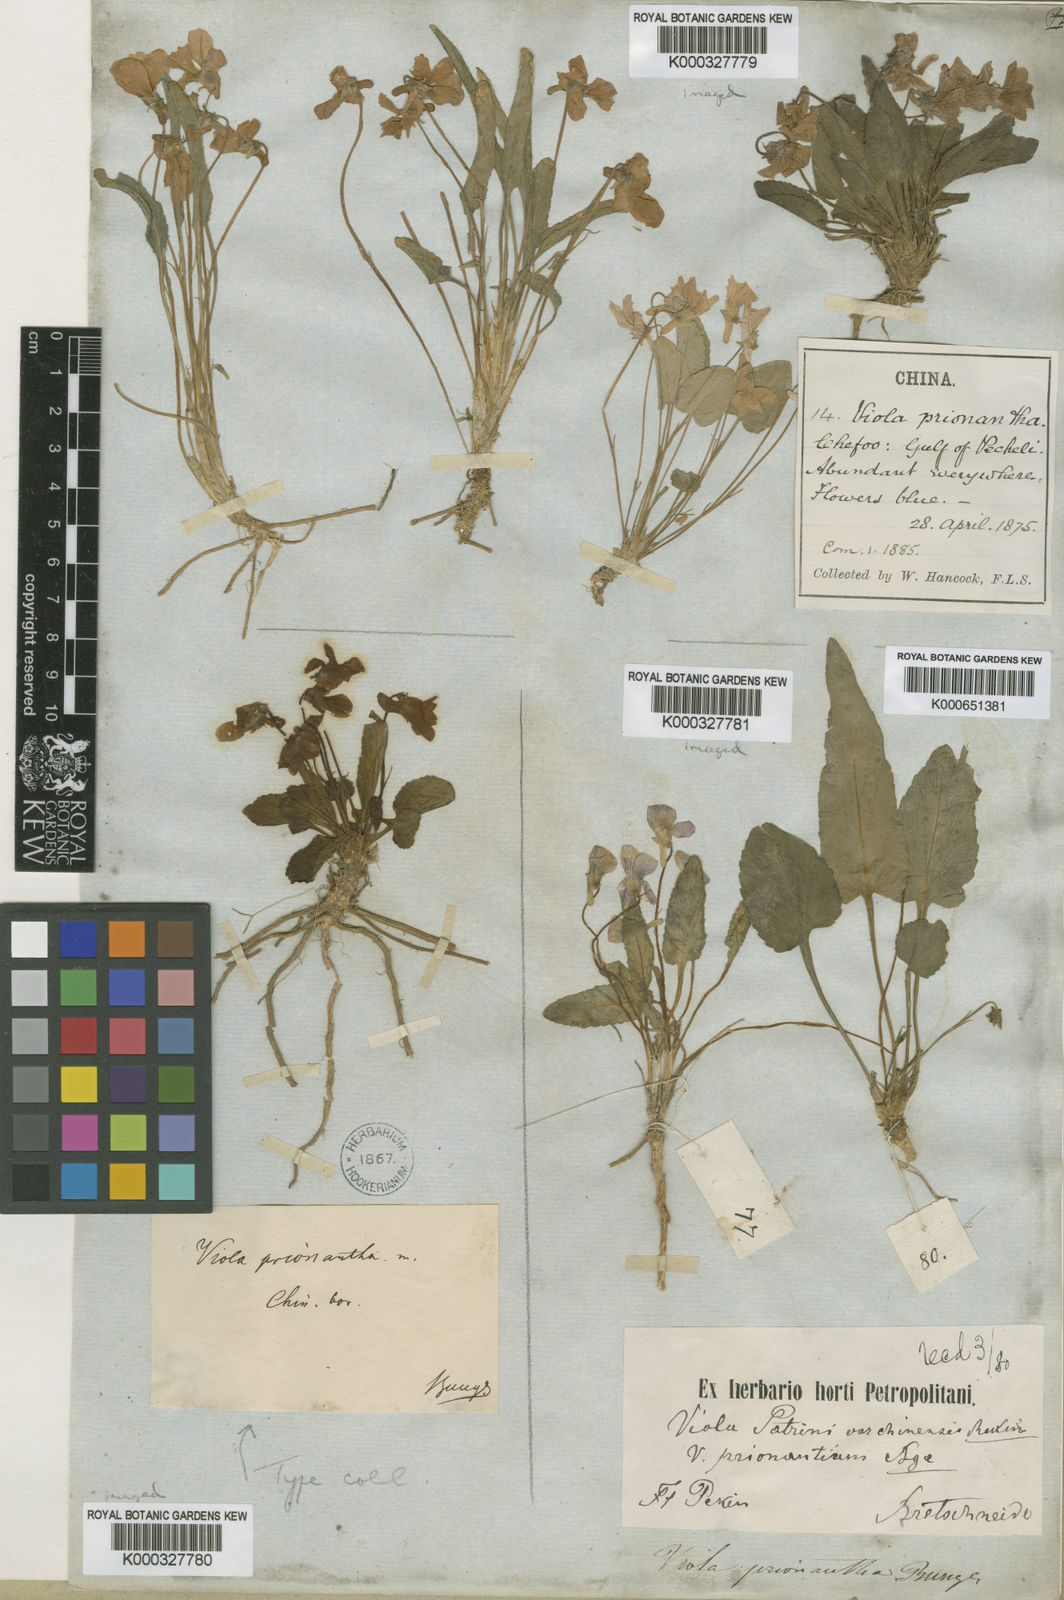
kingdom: Plantae
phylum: Tracheophyta
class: Magnoliopsida
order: Malpighiales
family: Violaceae
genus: Viola
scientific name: Viola prionantha
